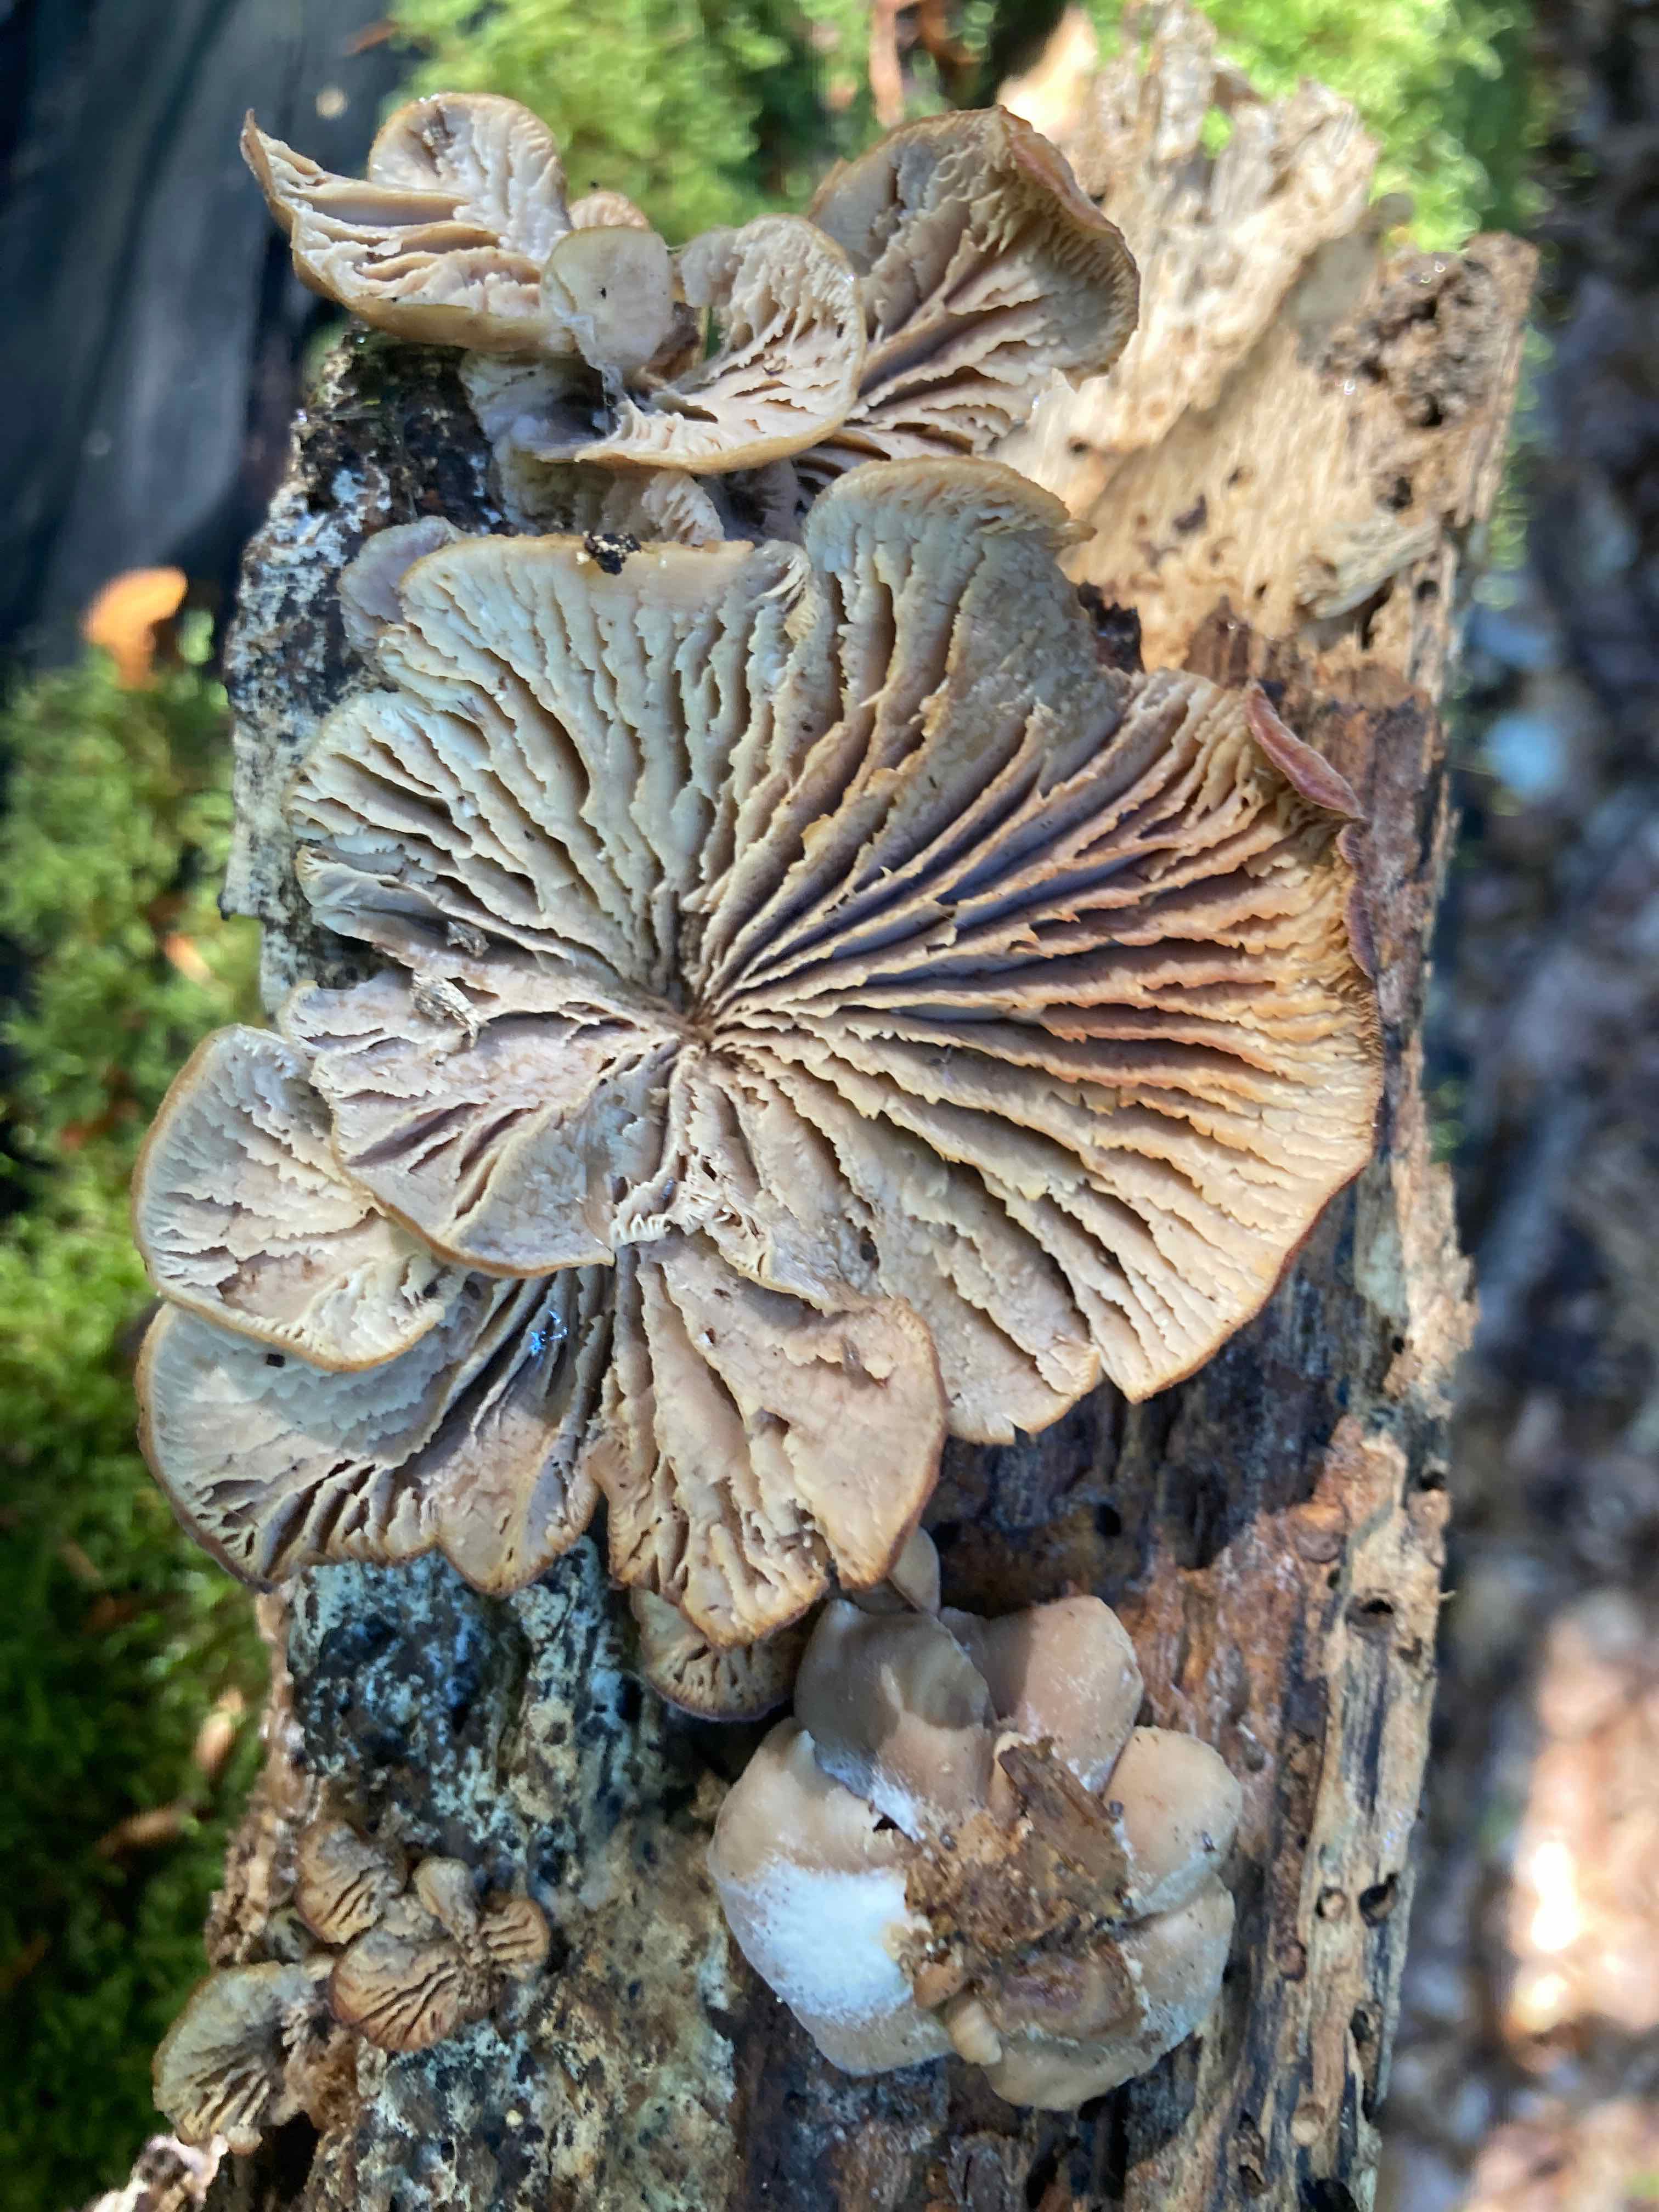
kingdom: Fungi
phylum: Basidiomycota
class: Agaricomycetes
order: Russulales
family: Auriscalpiaceae
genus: Lentinellus
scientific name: Lentinellus ursinus
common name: børstehåret savbladhat
